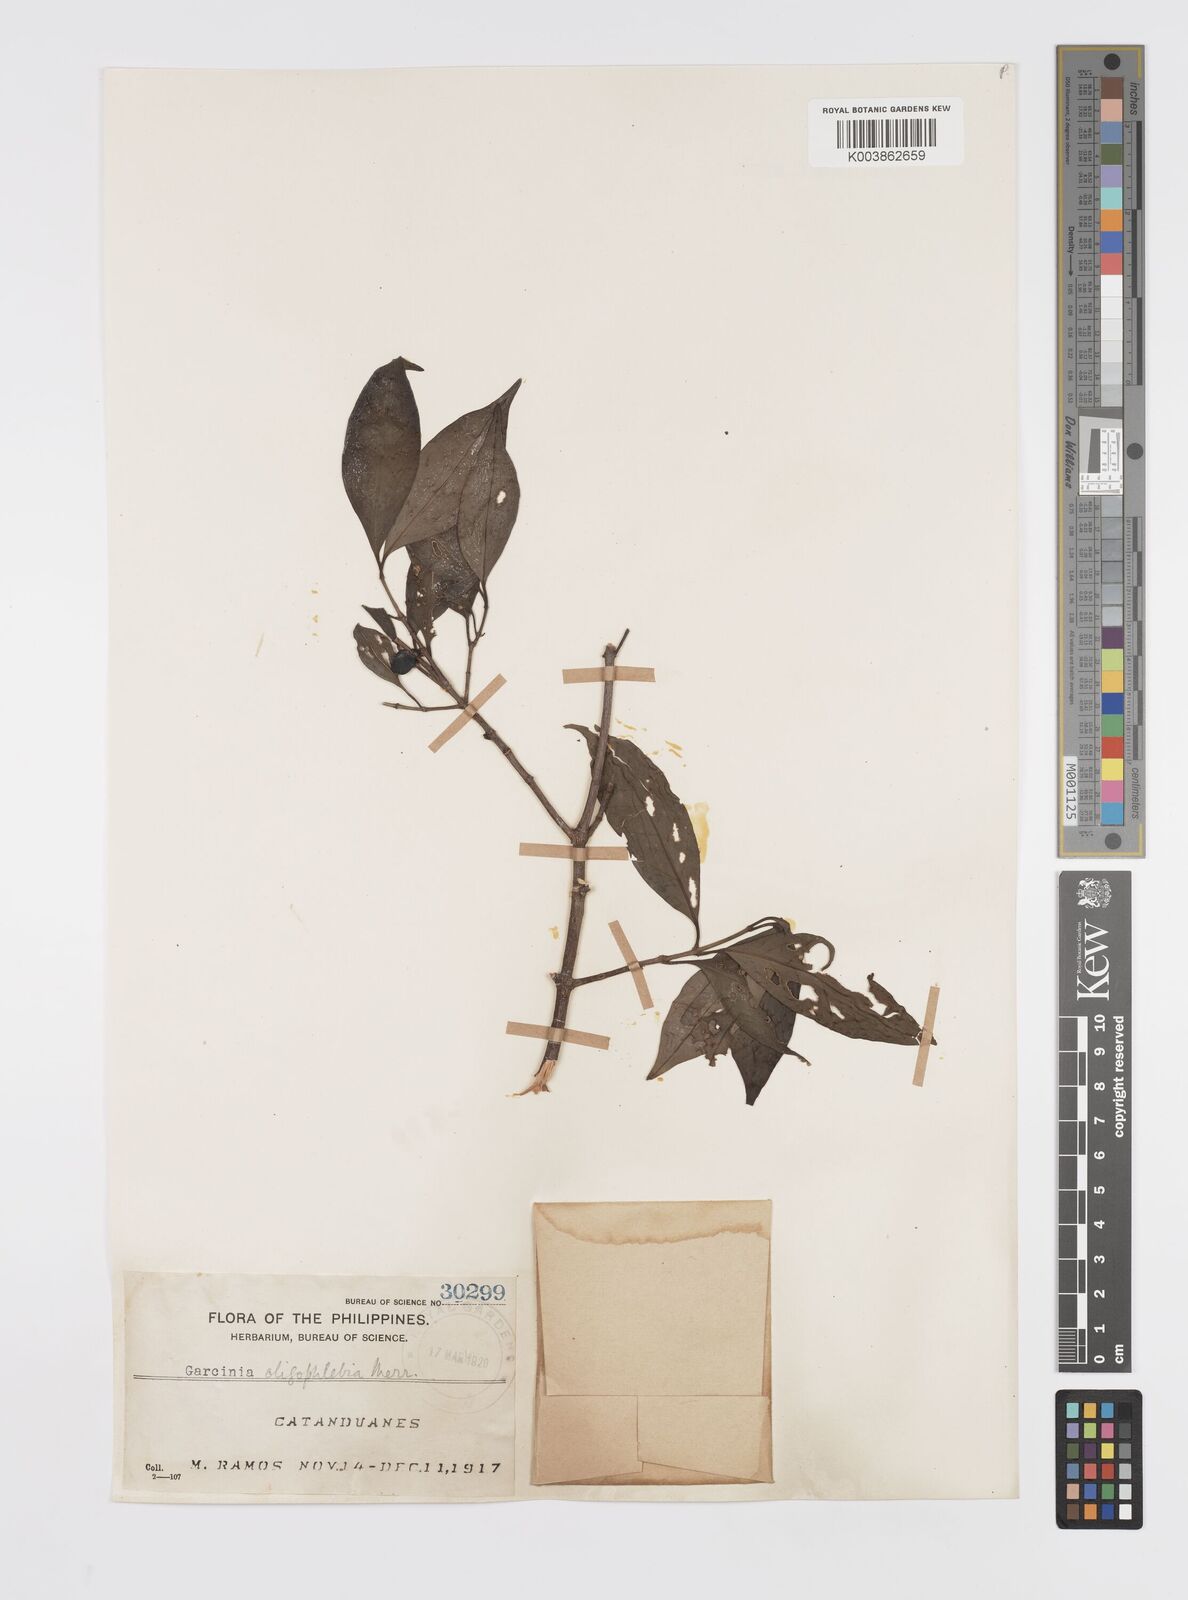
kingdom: Plantae
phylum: Tracheophyta
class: Magnoliopsida
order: Malpighiales
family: Clusiaceae
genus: Garcinia
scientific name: Garcinia rubra
